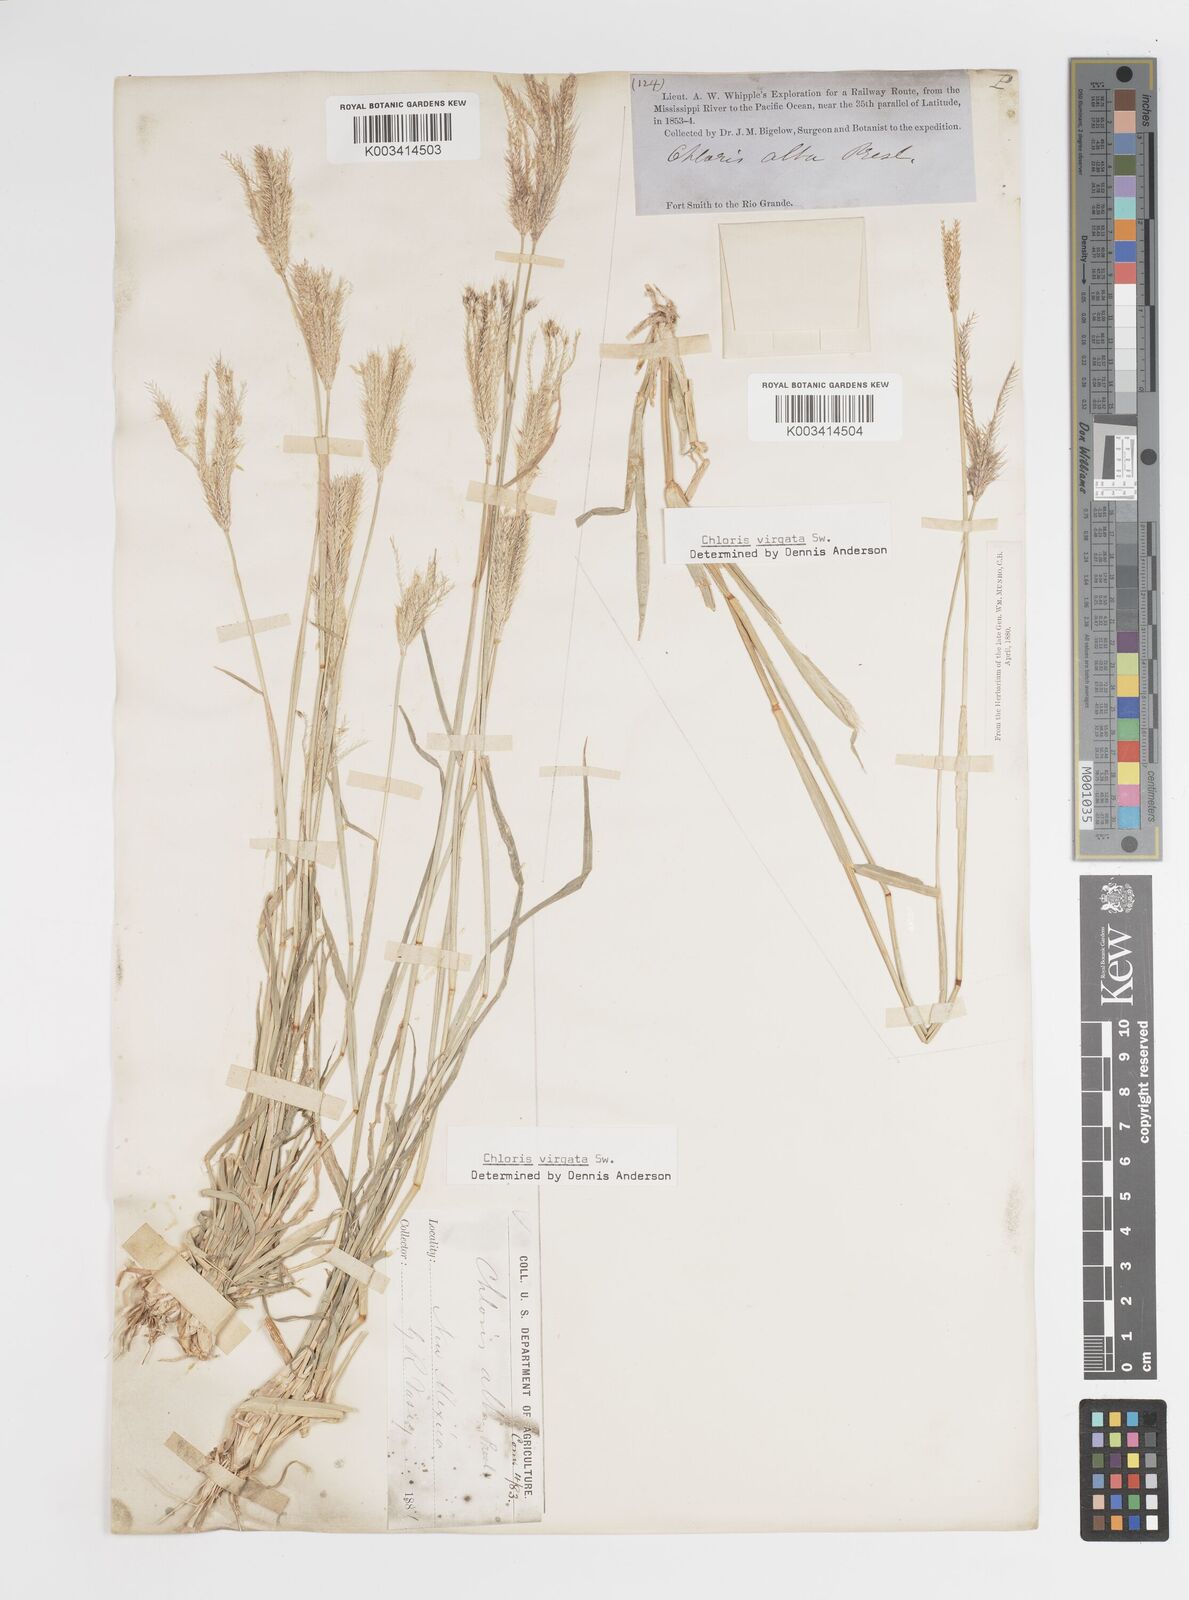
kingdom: Plantae
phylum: Tracheophyta
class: Liliopsida
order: Poales
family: Poaceae
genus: Chloris
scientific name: Chloris virgata
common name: Feathery rhodes-grass
